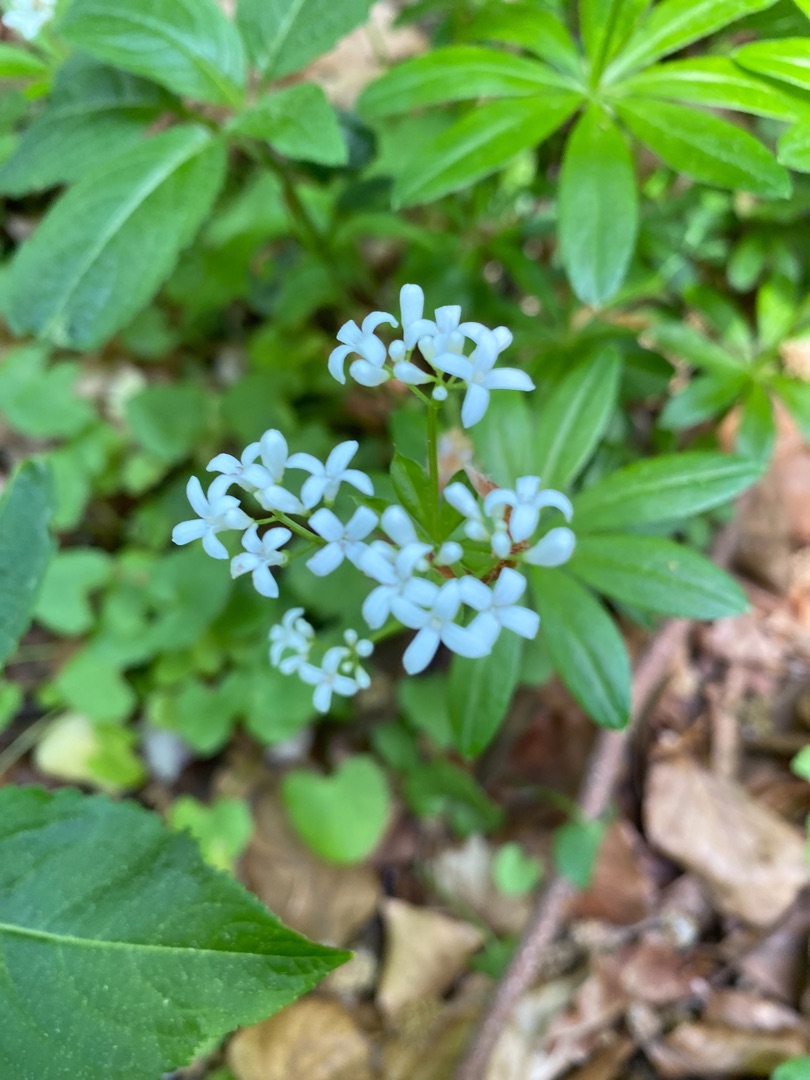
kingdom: Plantae
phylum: Tracheophyta
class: Magnoliopsida
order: Gentianales
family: Rubiaceae
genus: Galium
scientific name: Galium odoratum
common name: Skovmærke
